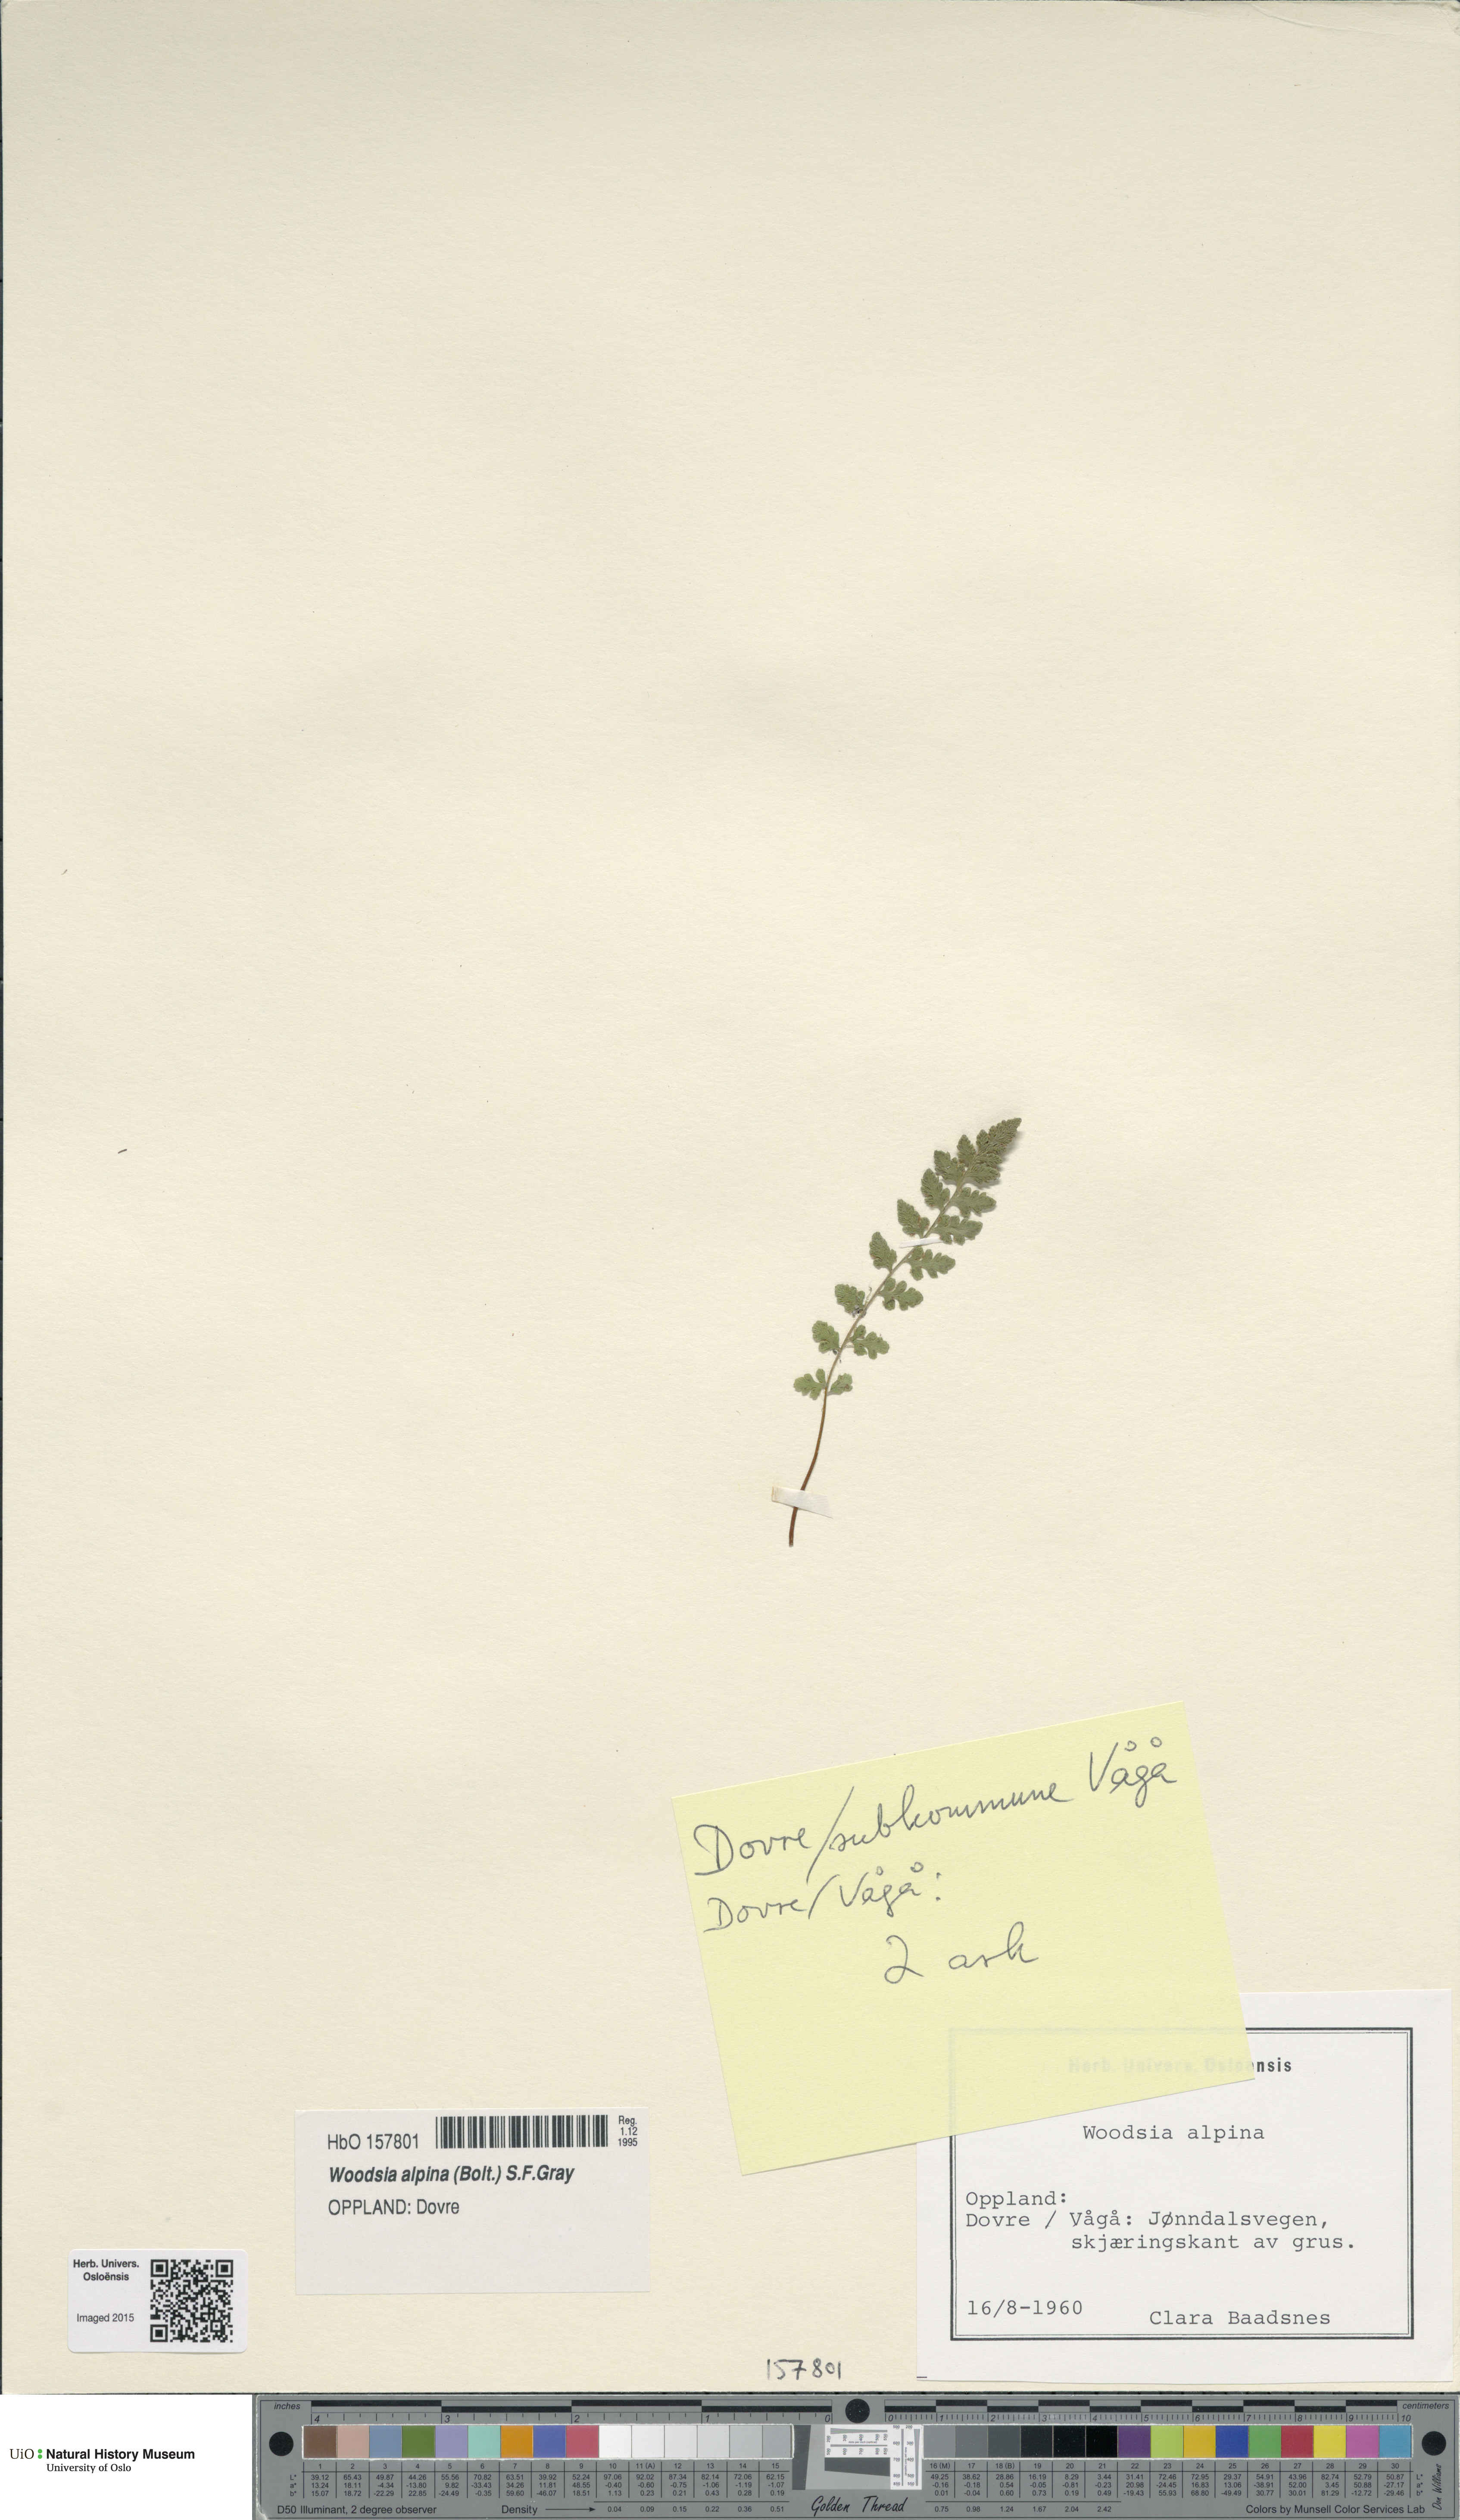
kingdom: Plantae
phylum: Tracheophyta
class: Polypodiopsida
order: Polypodiales
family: Woodsiaceae
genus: Woodsia
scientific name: Woodsia alpina
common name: Alpine woodsia
